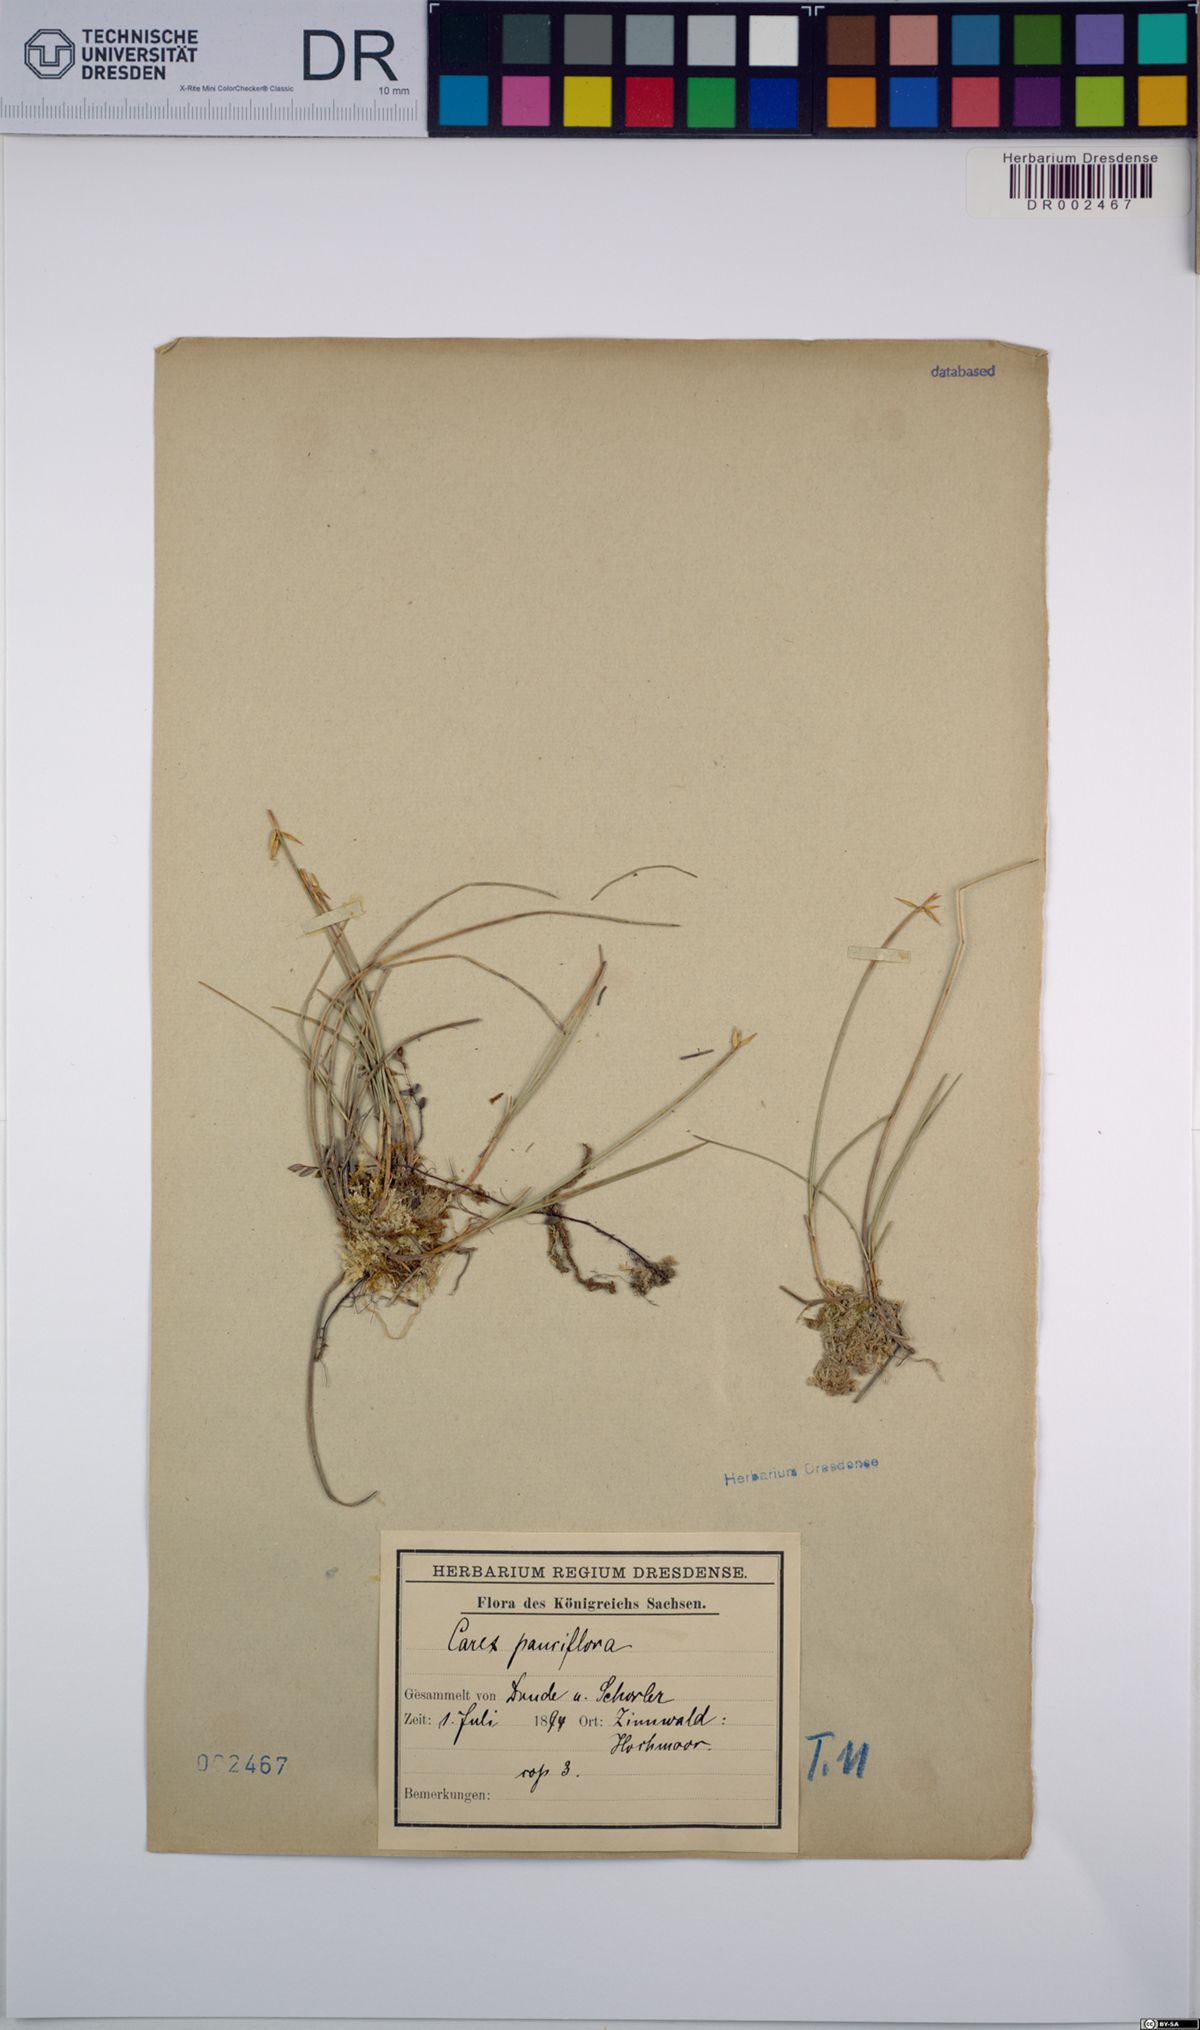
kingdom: Plantae
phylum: Tracheophyta
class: Liliopsida
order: Poales
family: Cyperaceae
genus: Carex
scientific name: Carex pauciflora
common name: Few-flowered sedge
